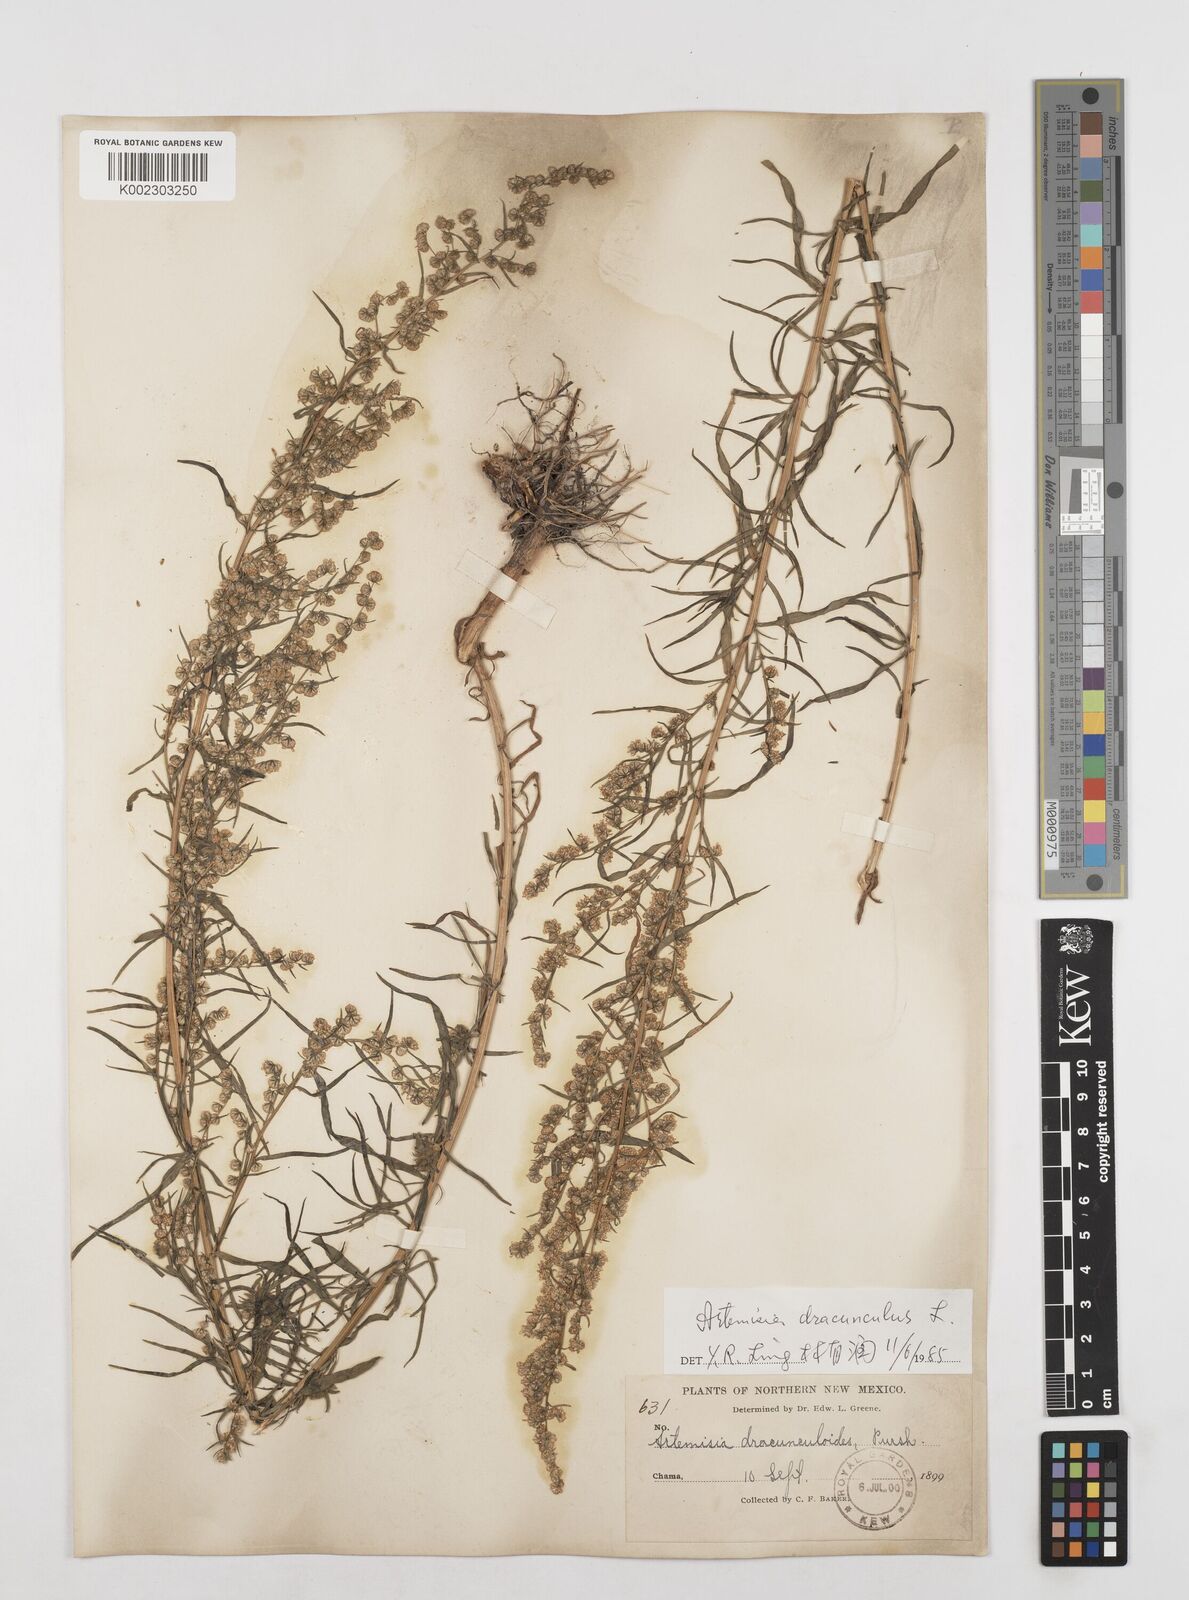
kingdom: Plantae
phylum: Tracheophyta
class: Magnoliopsida
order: Asterales
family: Asteraceae
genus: Artemisia
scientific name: Artemisia dracunculus
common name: Tarragon
